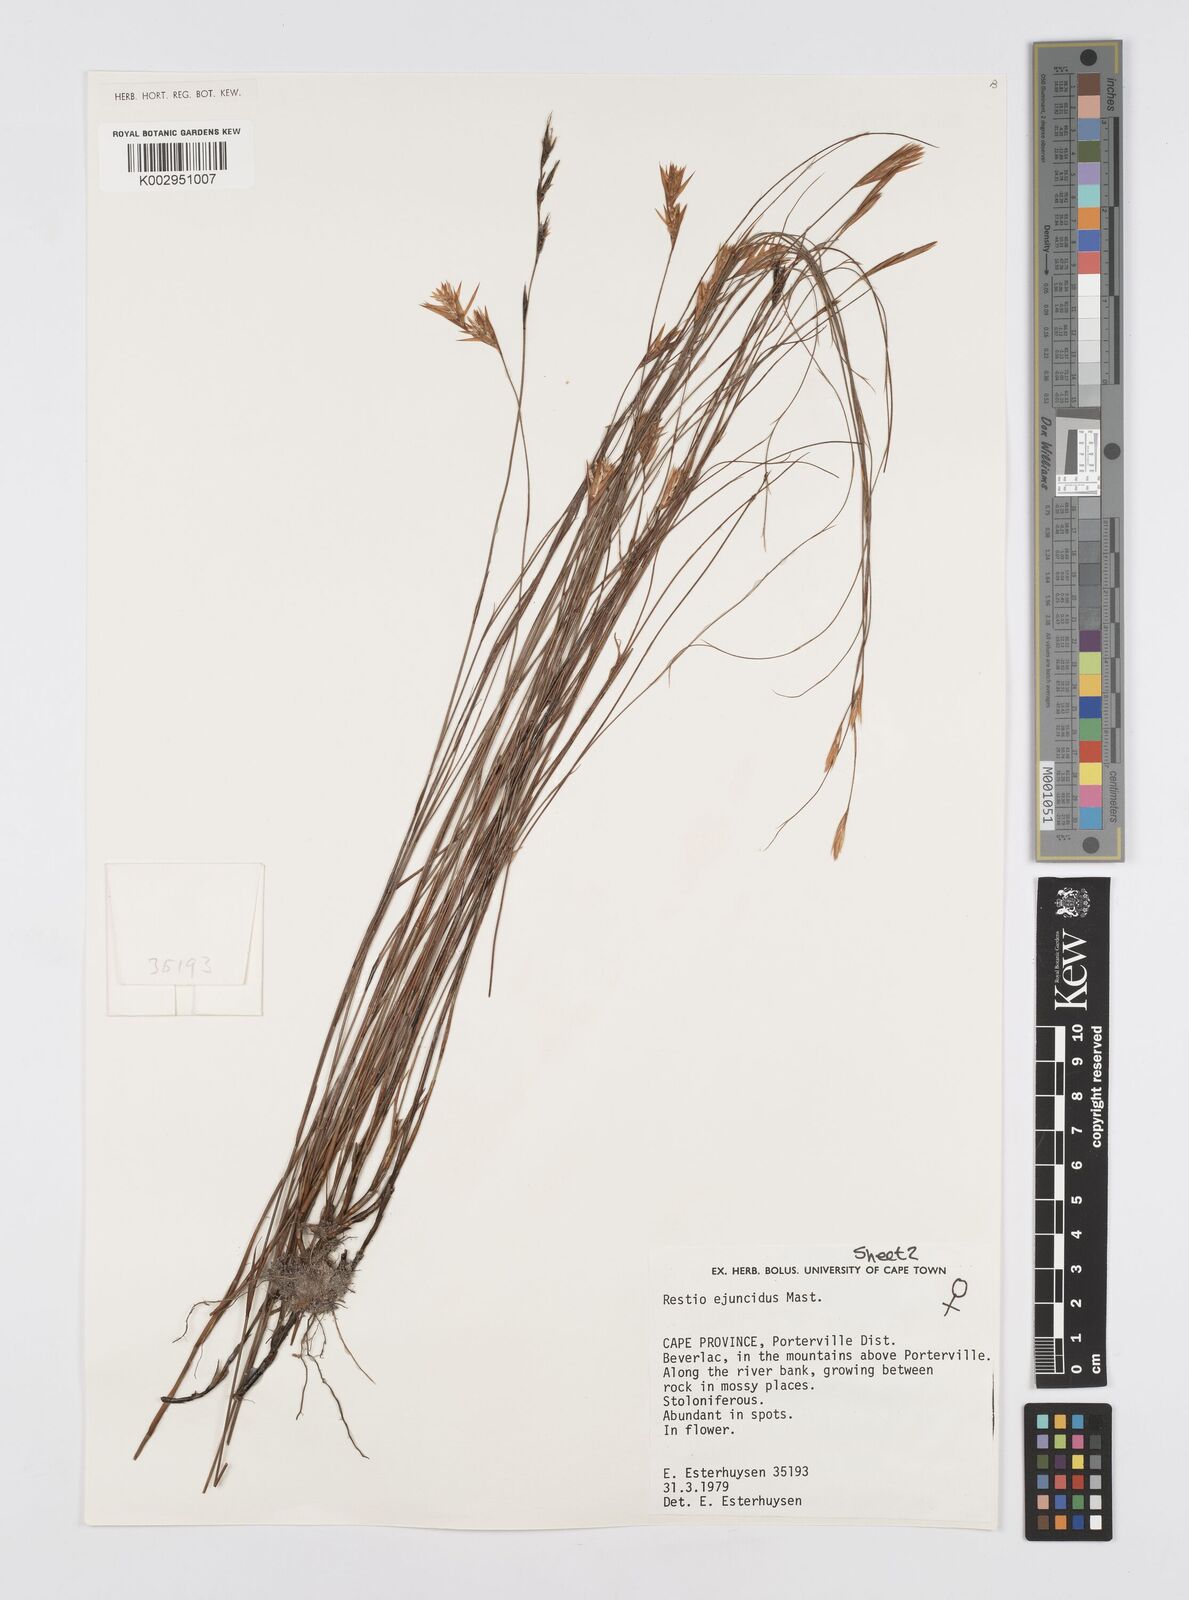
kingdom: Plantae
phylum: Tracheophyta
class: Liliopsida
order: Poales
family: Restionaceae
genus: Restio
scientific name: Restio ejuncidus
